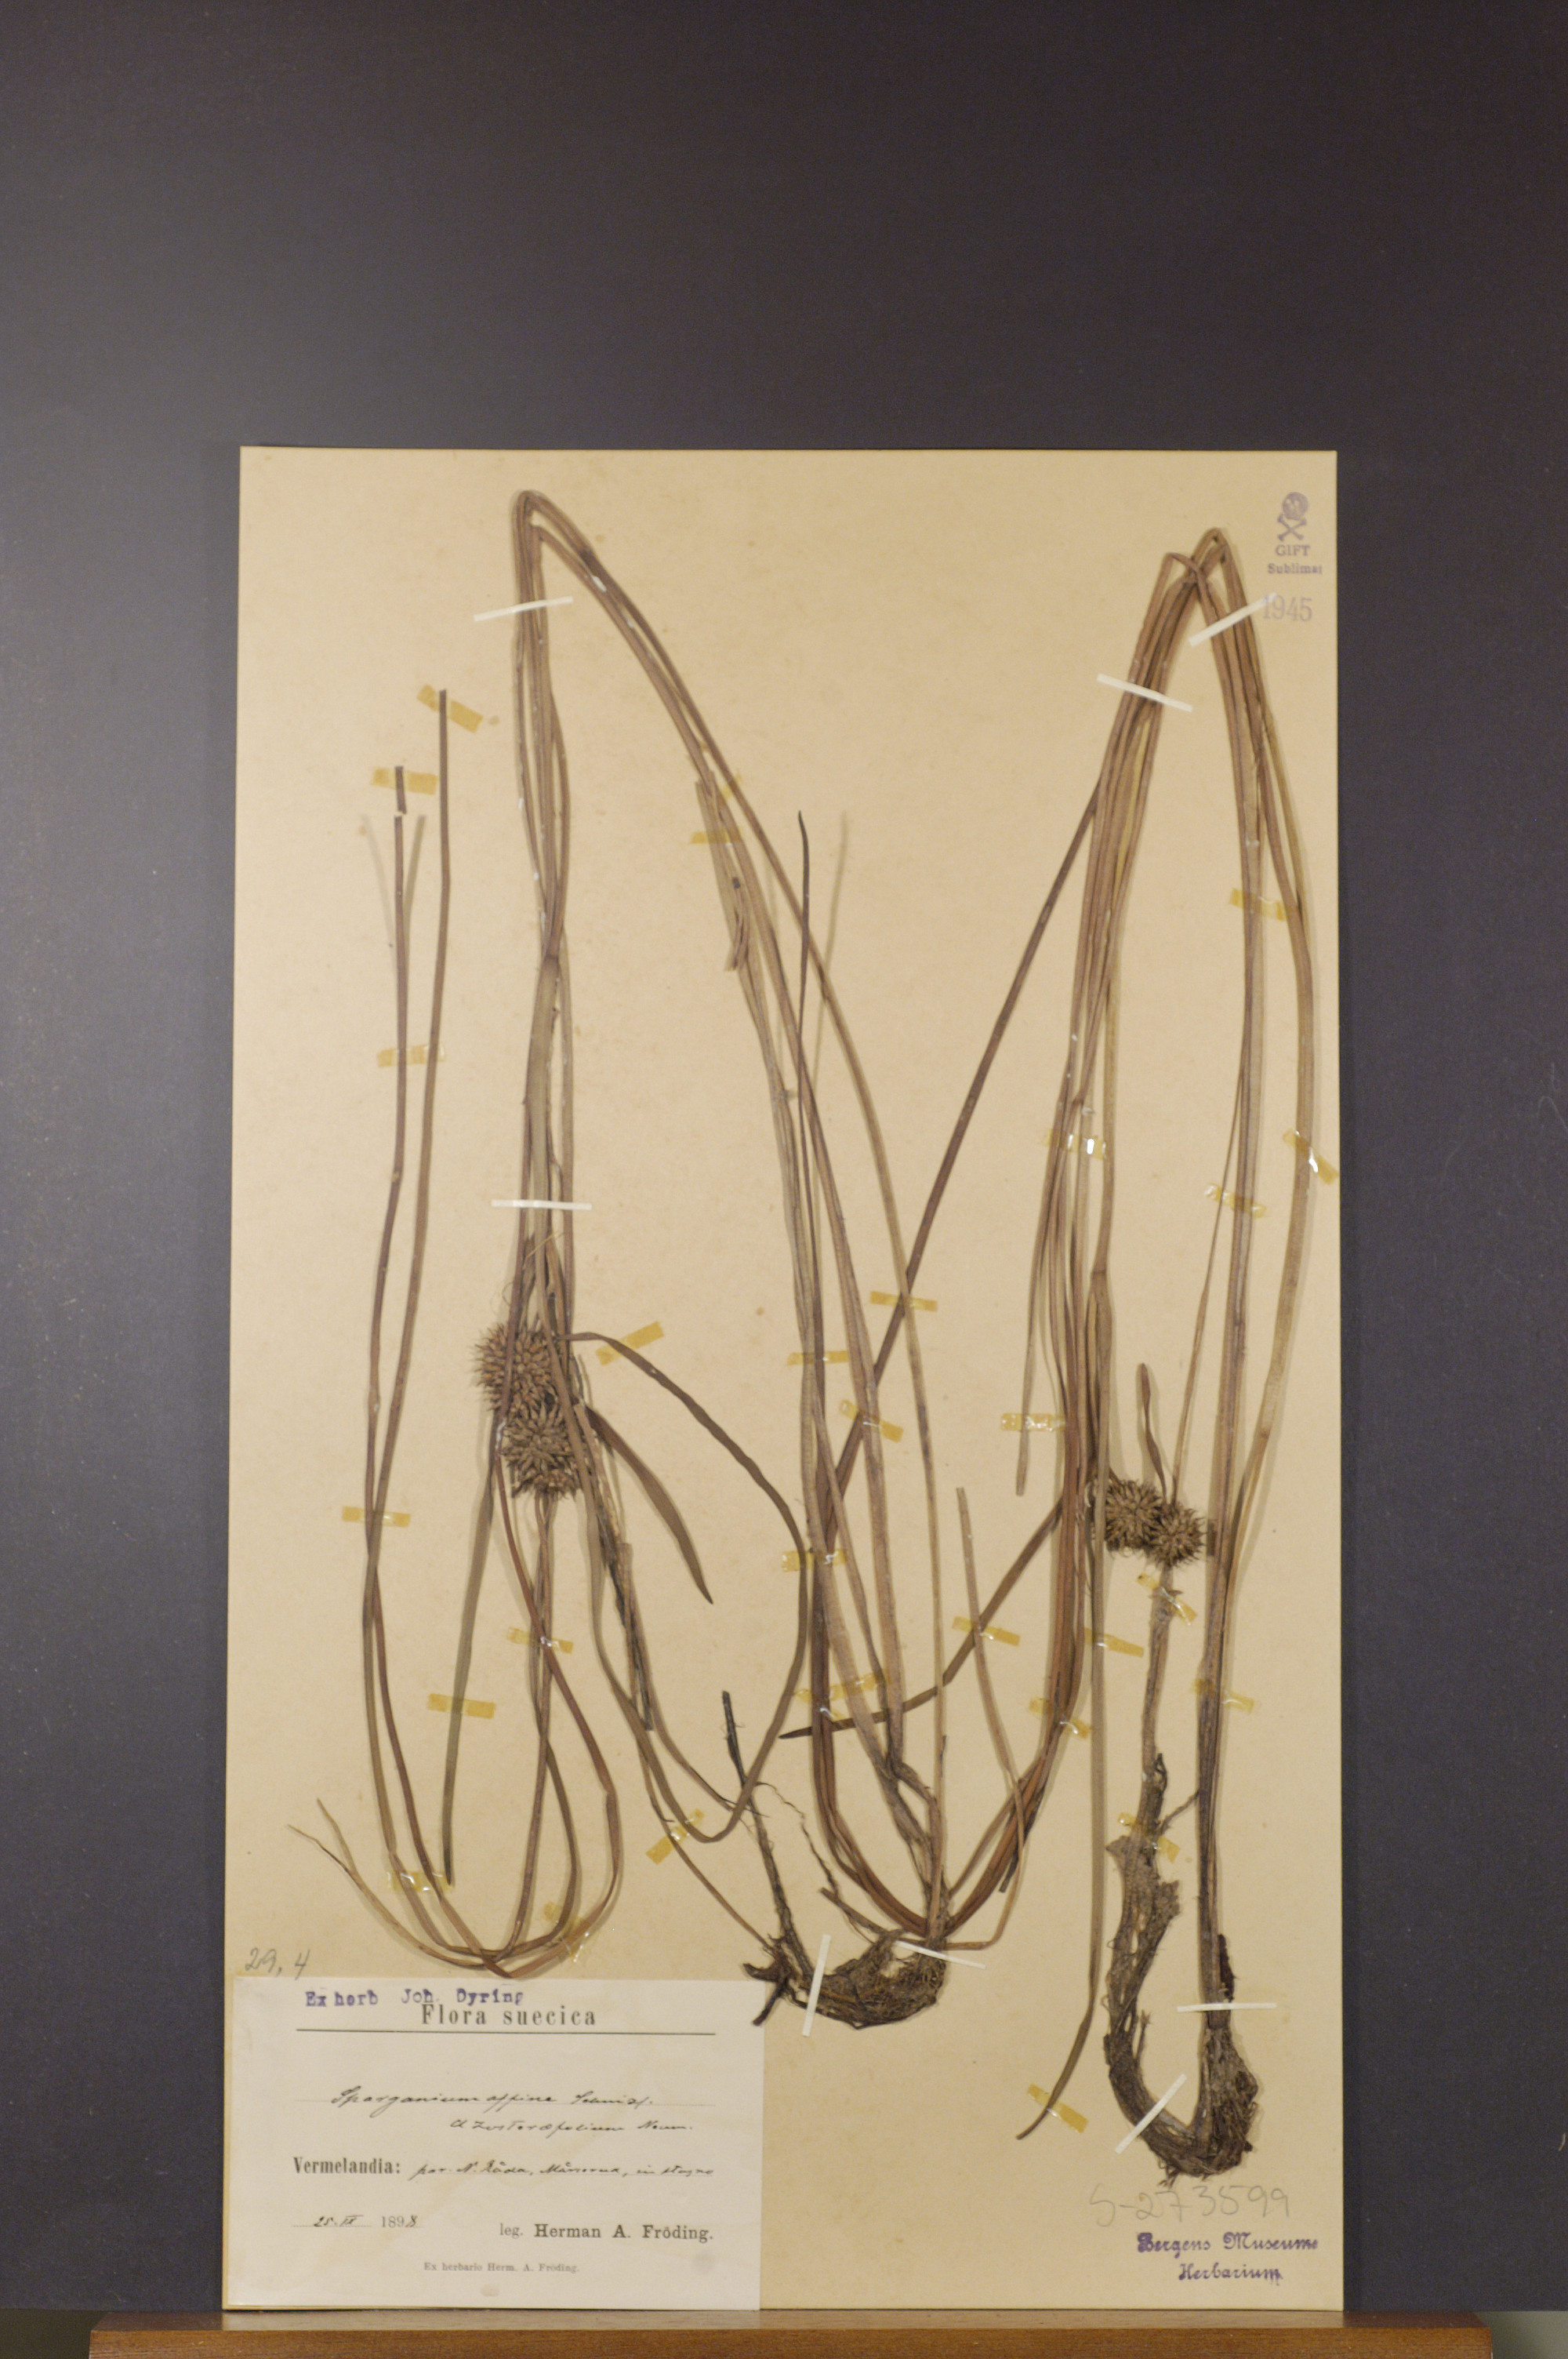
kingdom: Plantae
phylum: Tracheophyta
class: Liliopsida
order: Poales
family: Typhaceae
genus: Sparganium
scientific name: Sparganium angustifolium
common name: Floating bur-reed
